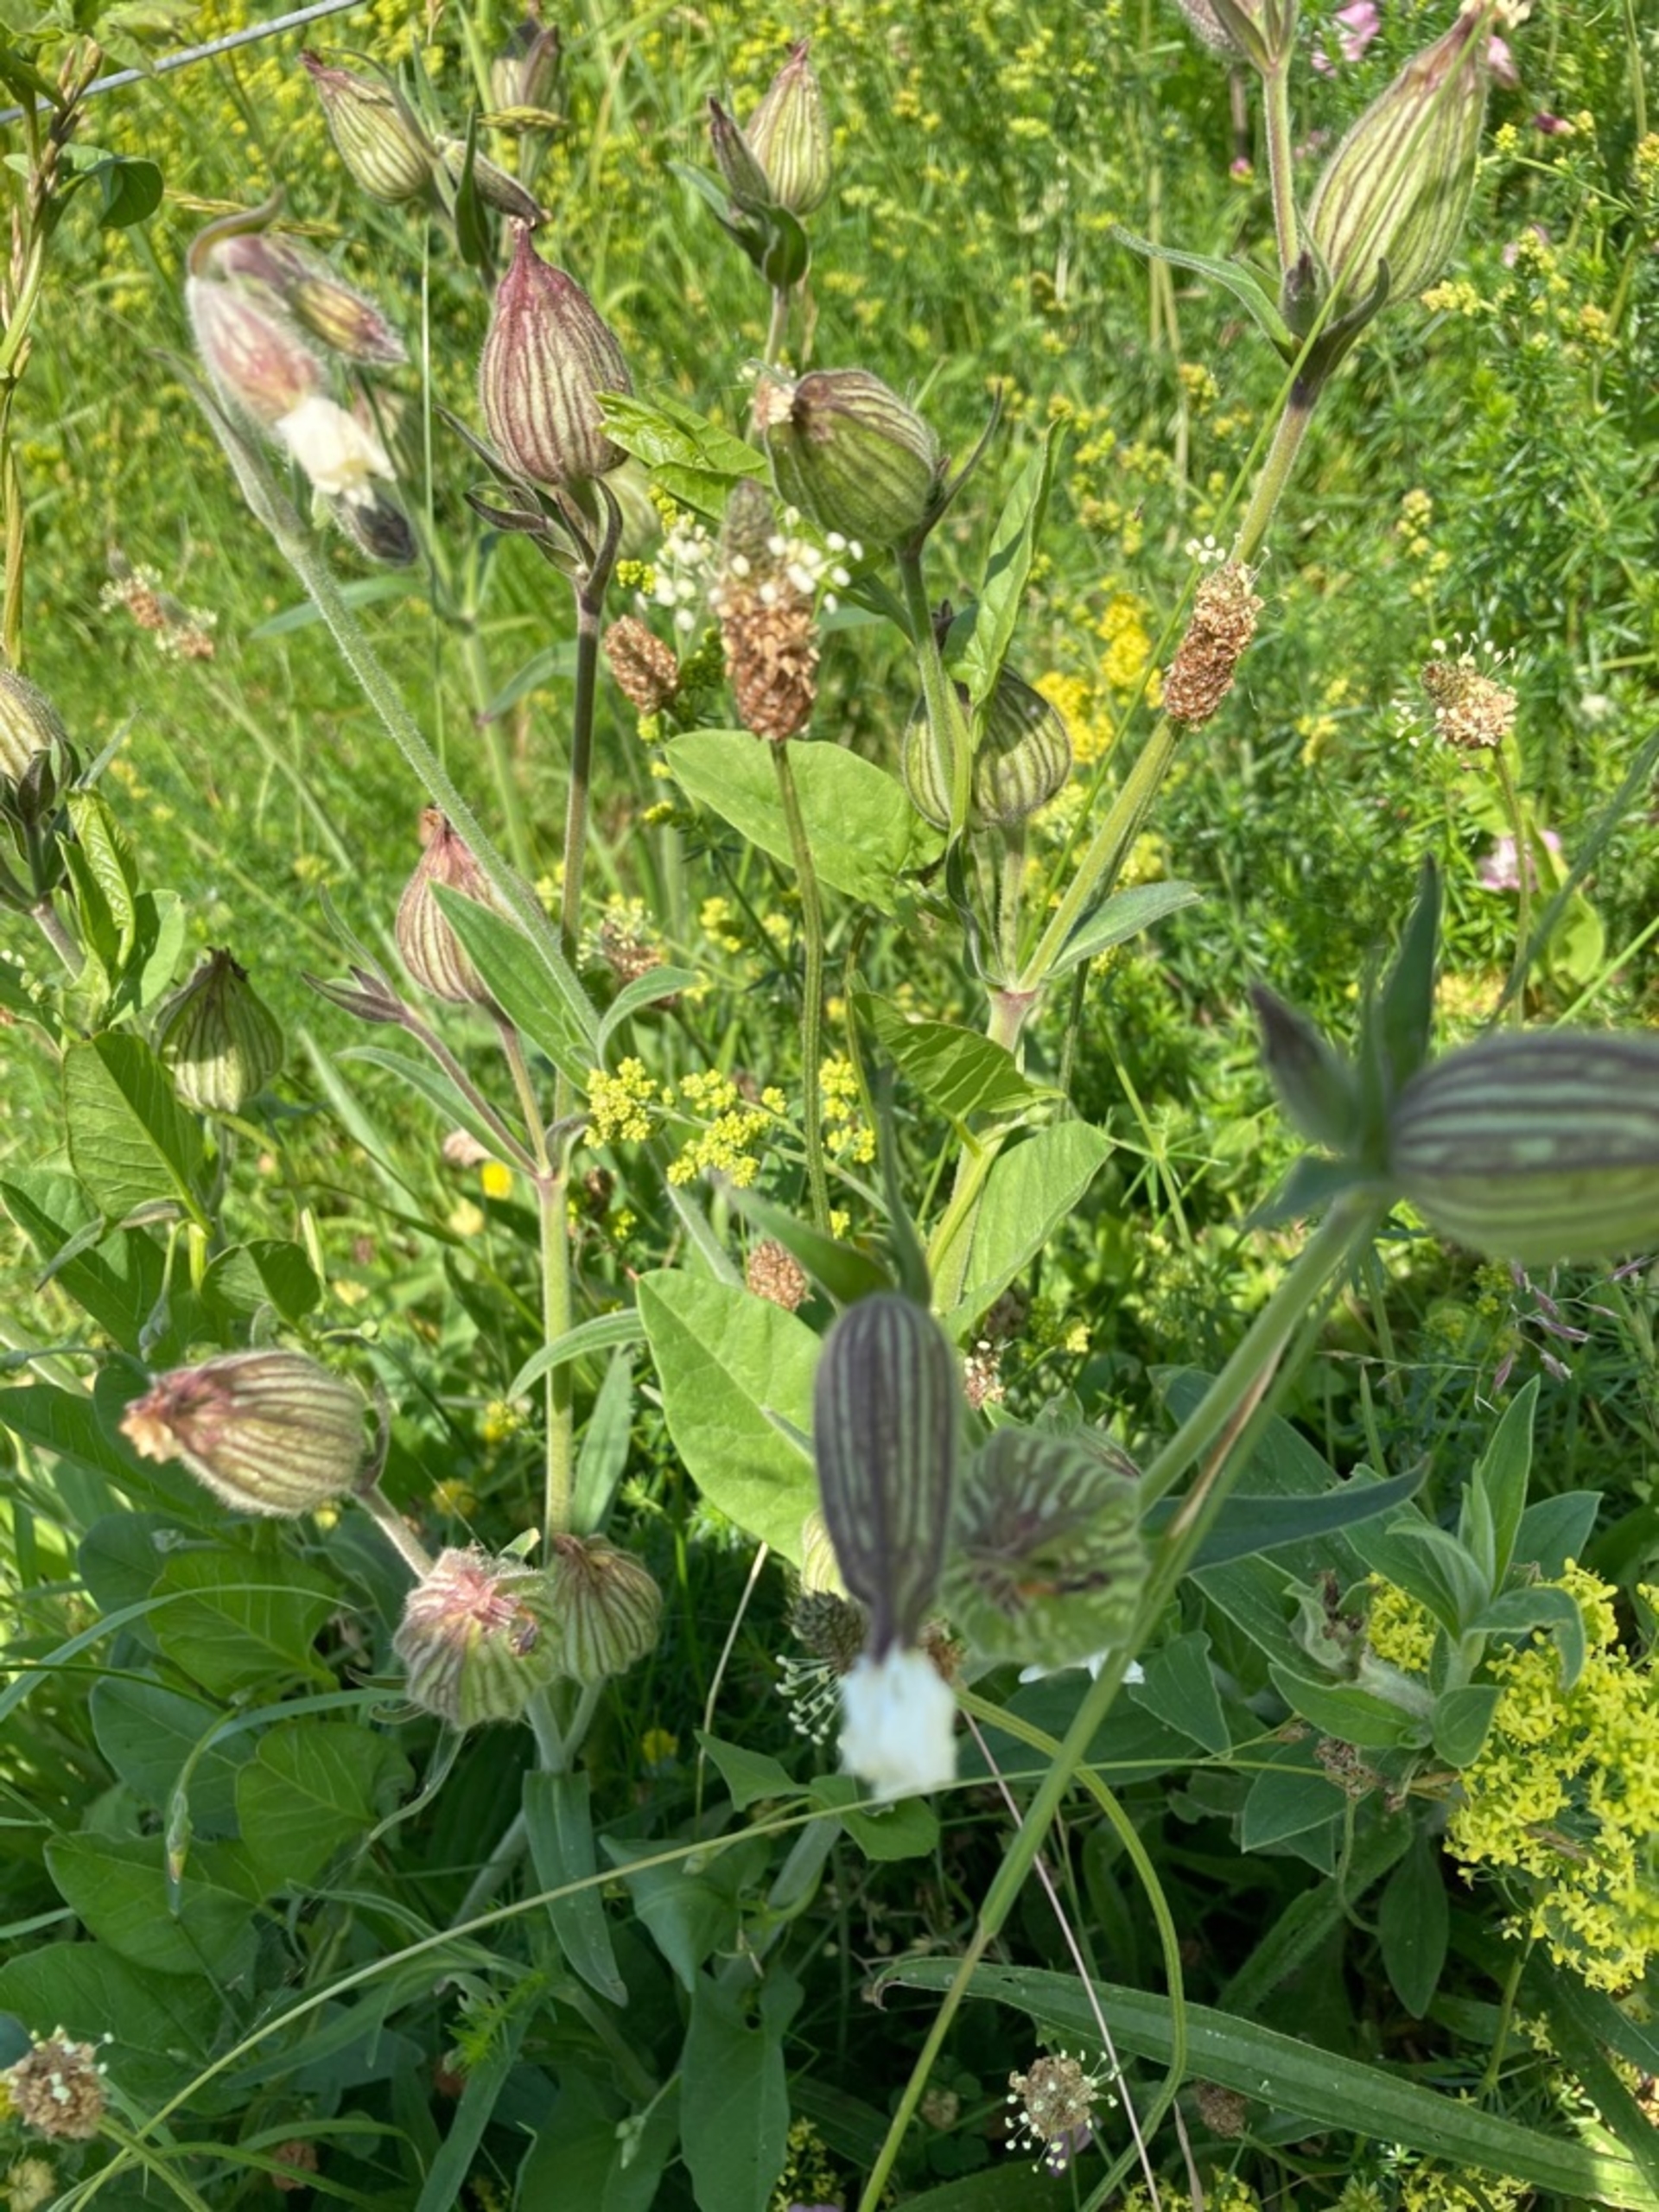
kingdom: Plantae
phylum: Tracheophyta
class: Magnoliopsida
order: Caryophyllales
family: Caryophyllaceae
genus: Silene
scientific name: Silene latifolia
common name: Aftenpragtstjerne
